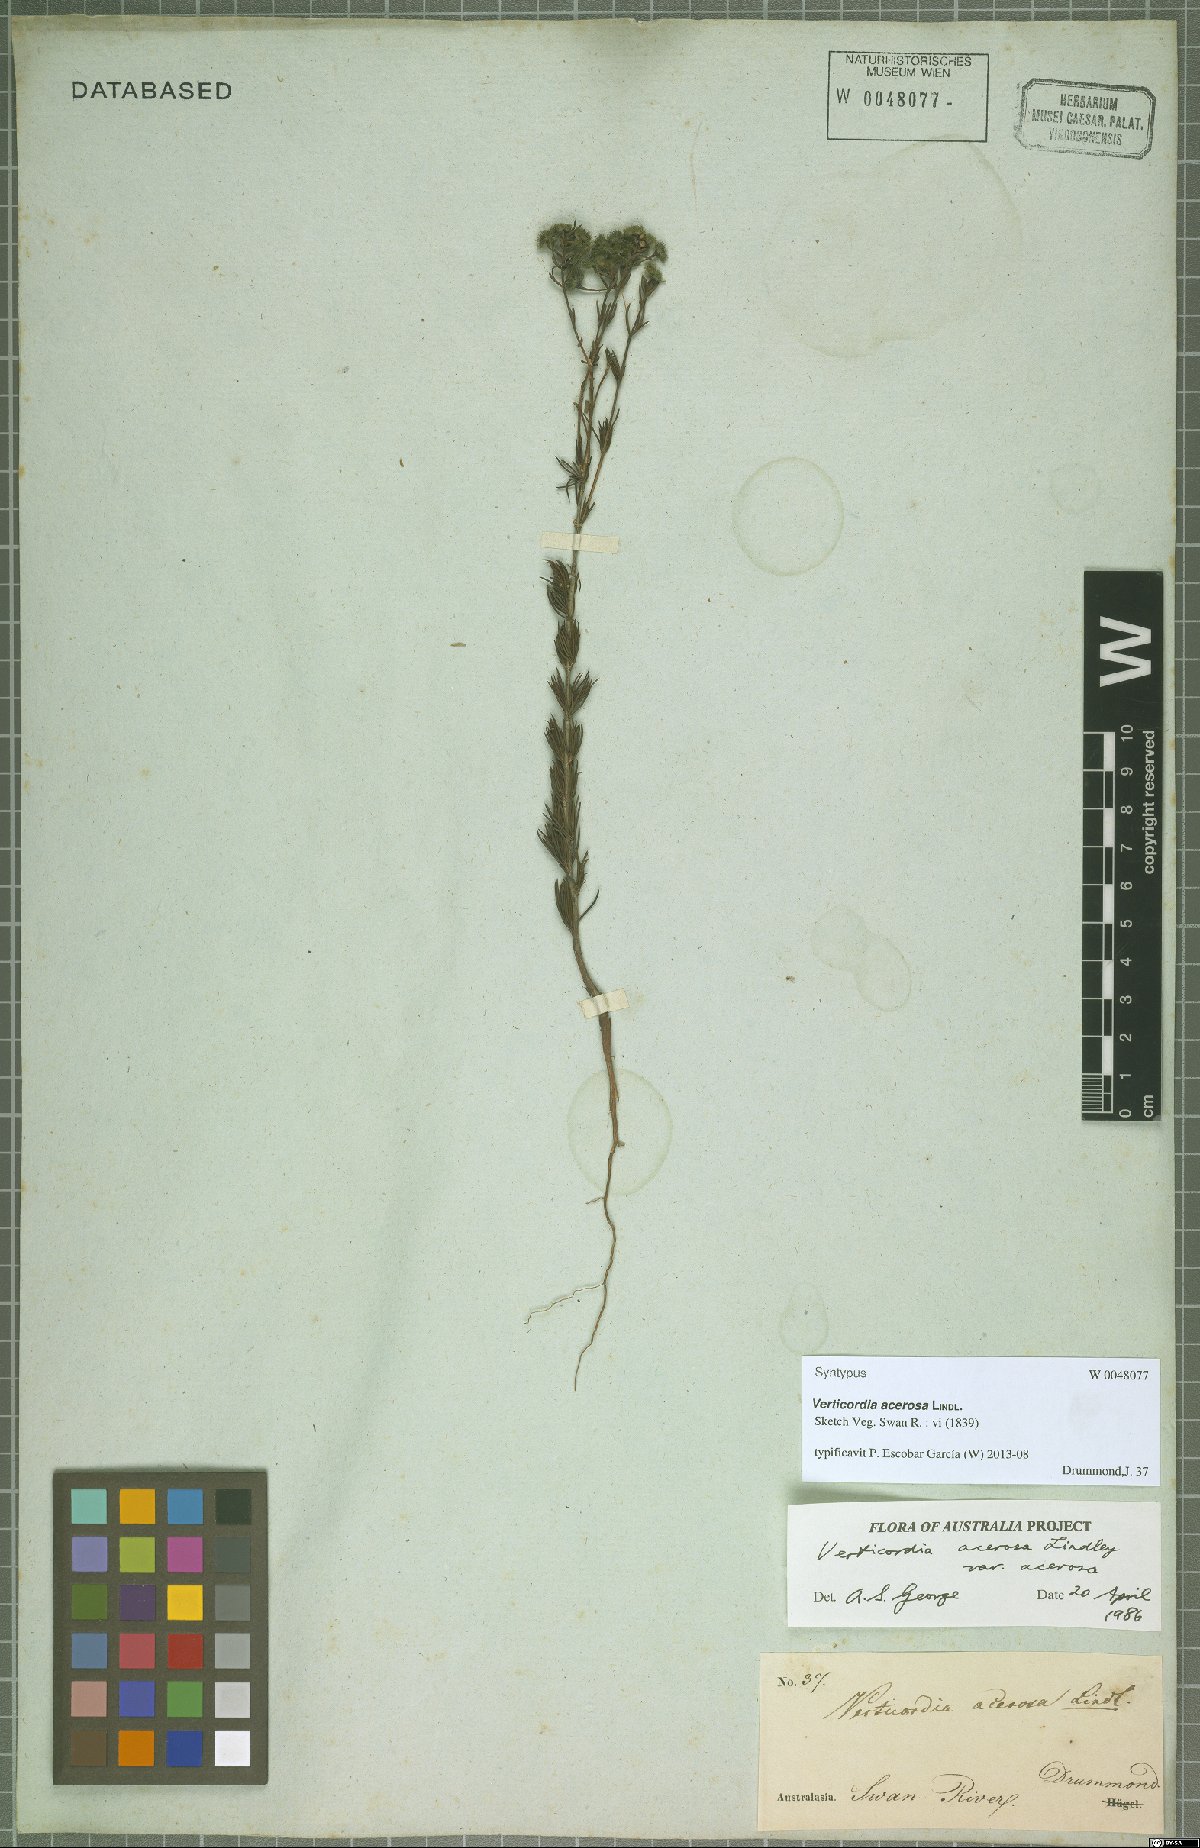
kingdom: Plantae
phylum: Tracheophyta
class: Magnoliopsida
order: Myrtales
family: Myrtaceae
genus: Verticordia
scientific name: Verticordia acerosa
